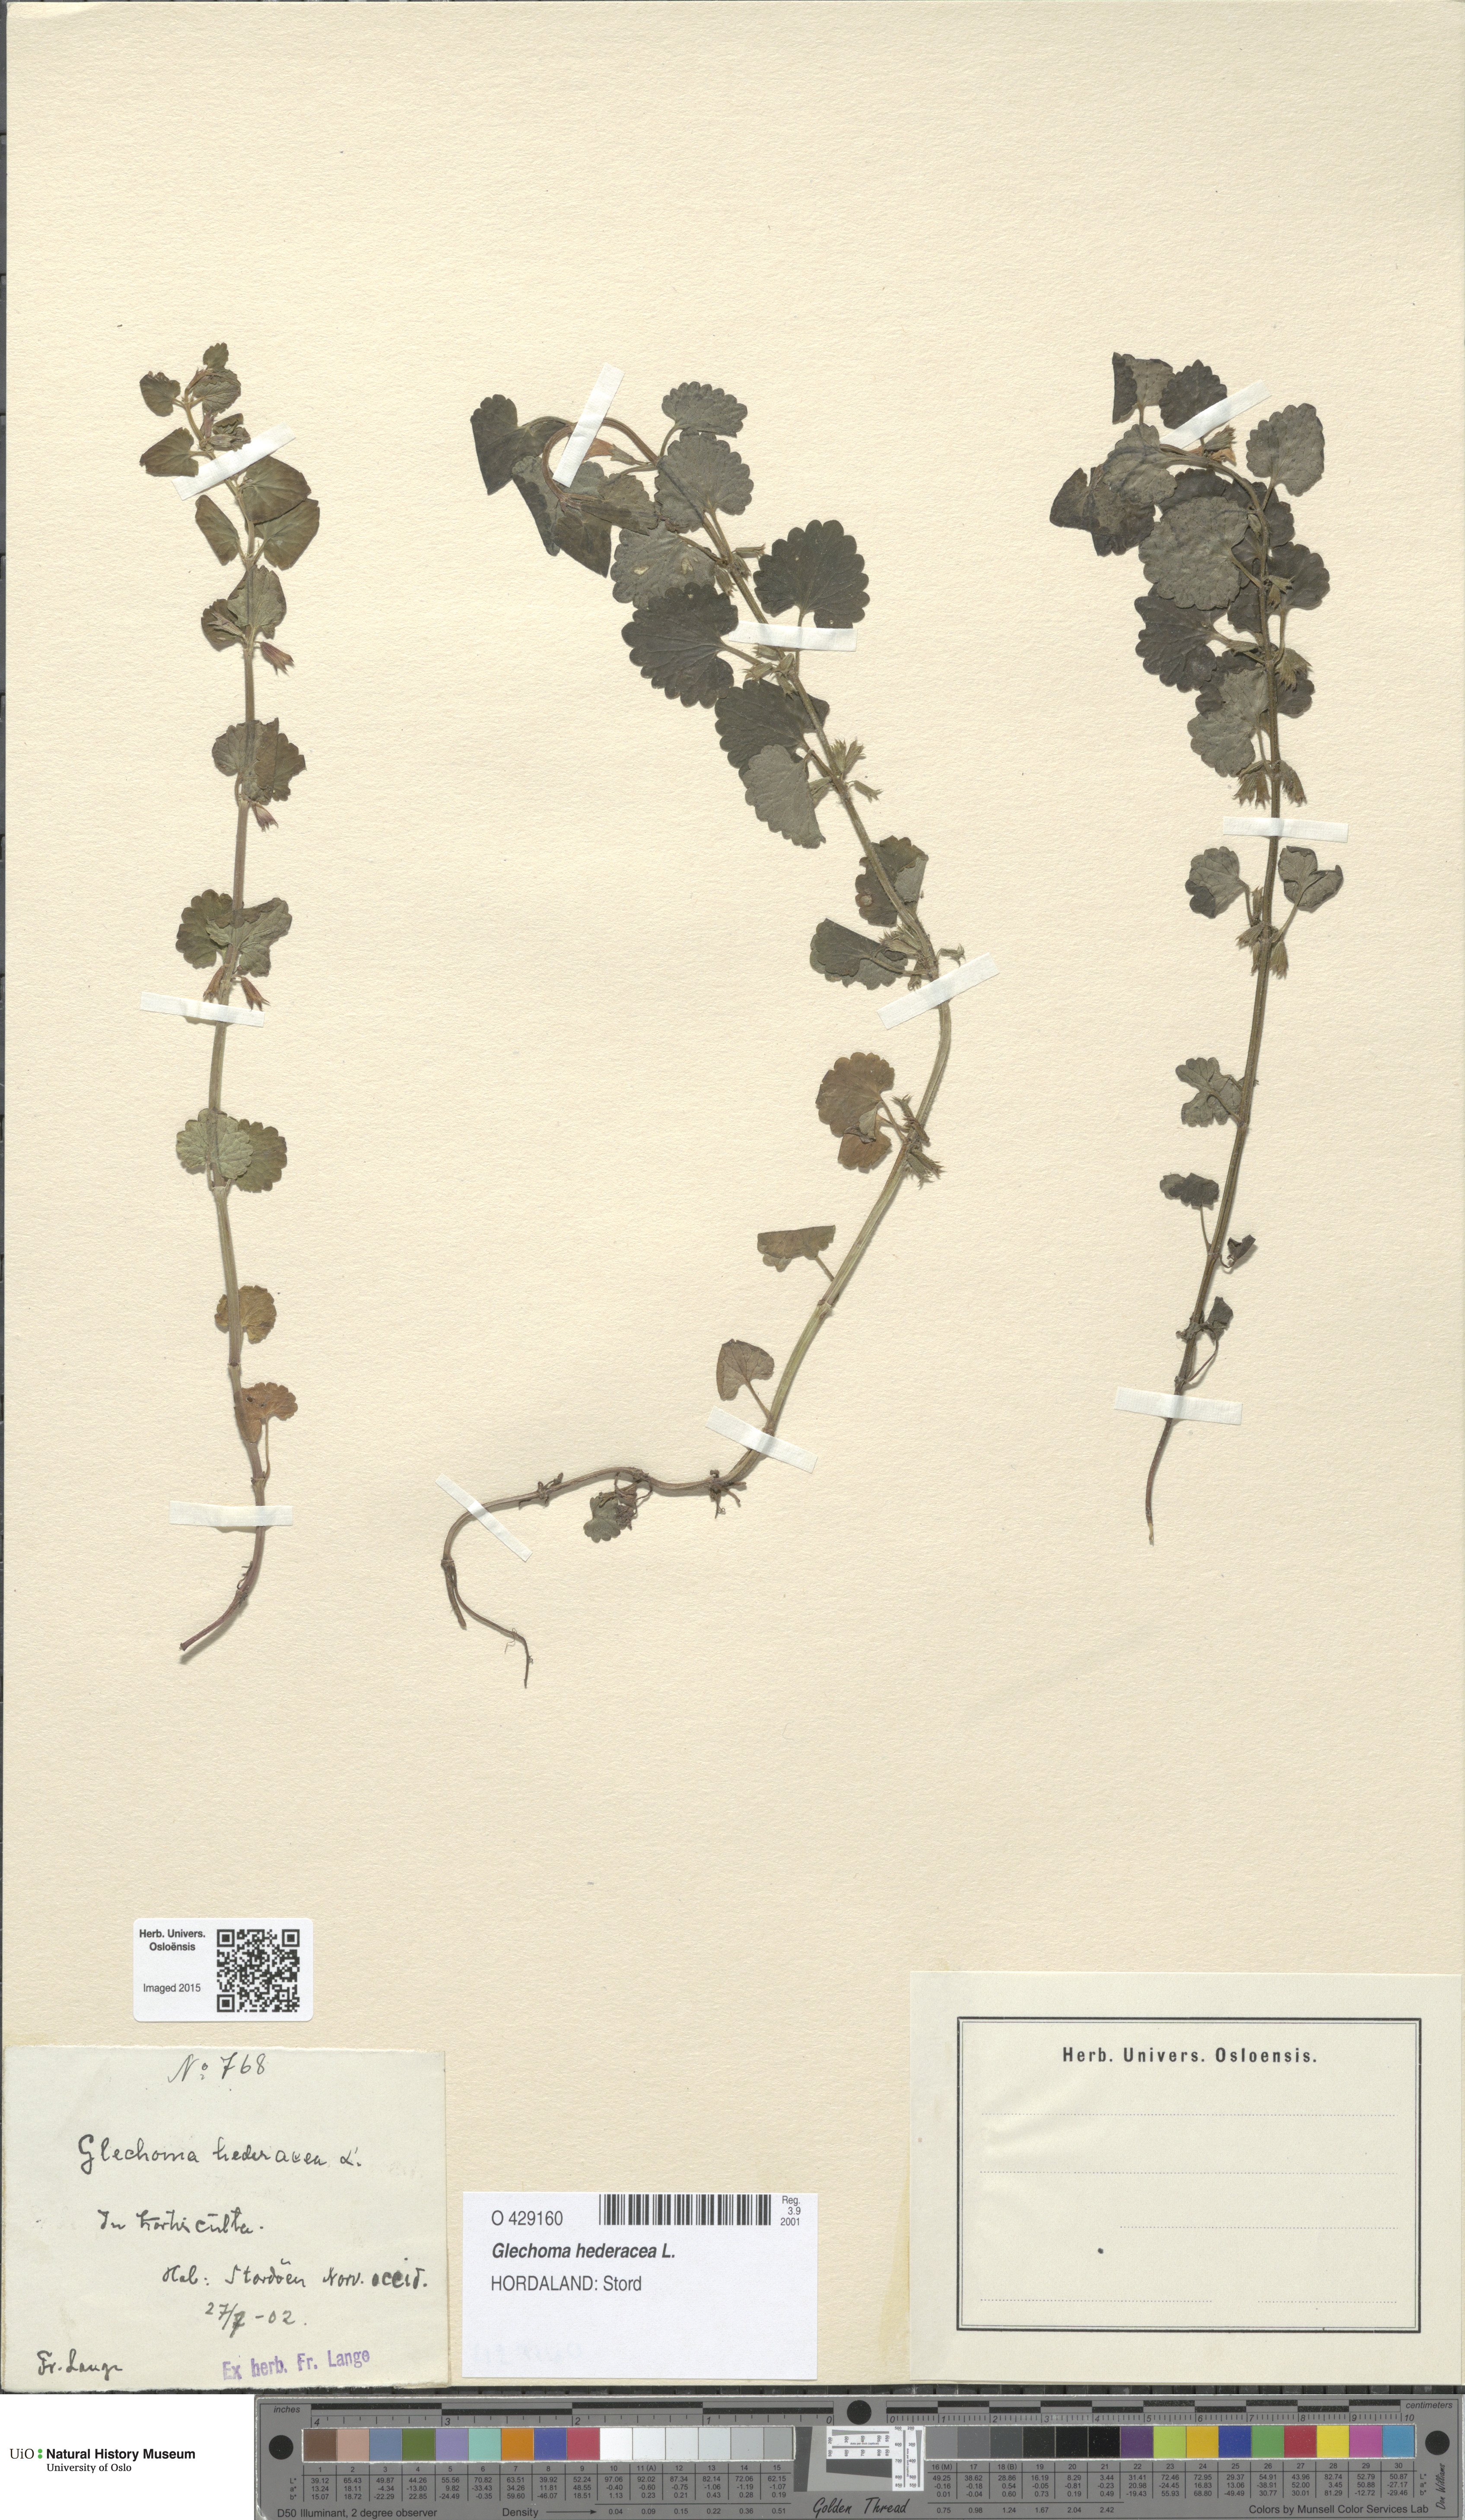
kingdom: Plantae
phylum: Tracheophyta
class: Magnoliopsida
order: Lamiales
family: Lamiaceae
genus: Glechoma
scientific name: Glechoma hederacea
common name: Ground ivy
